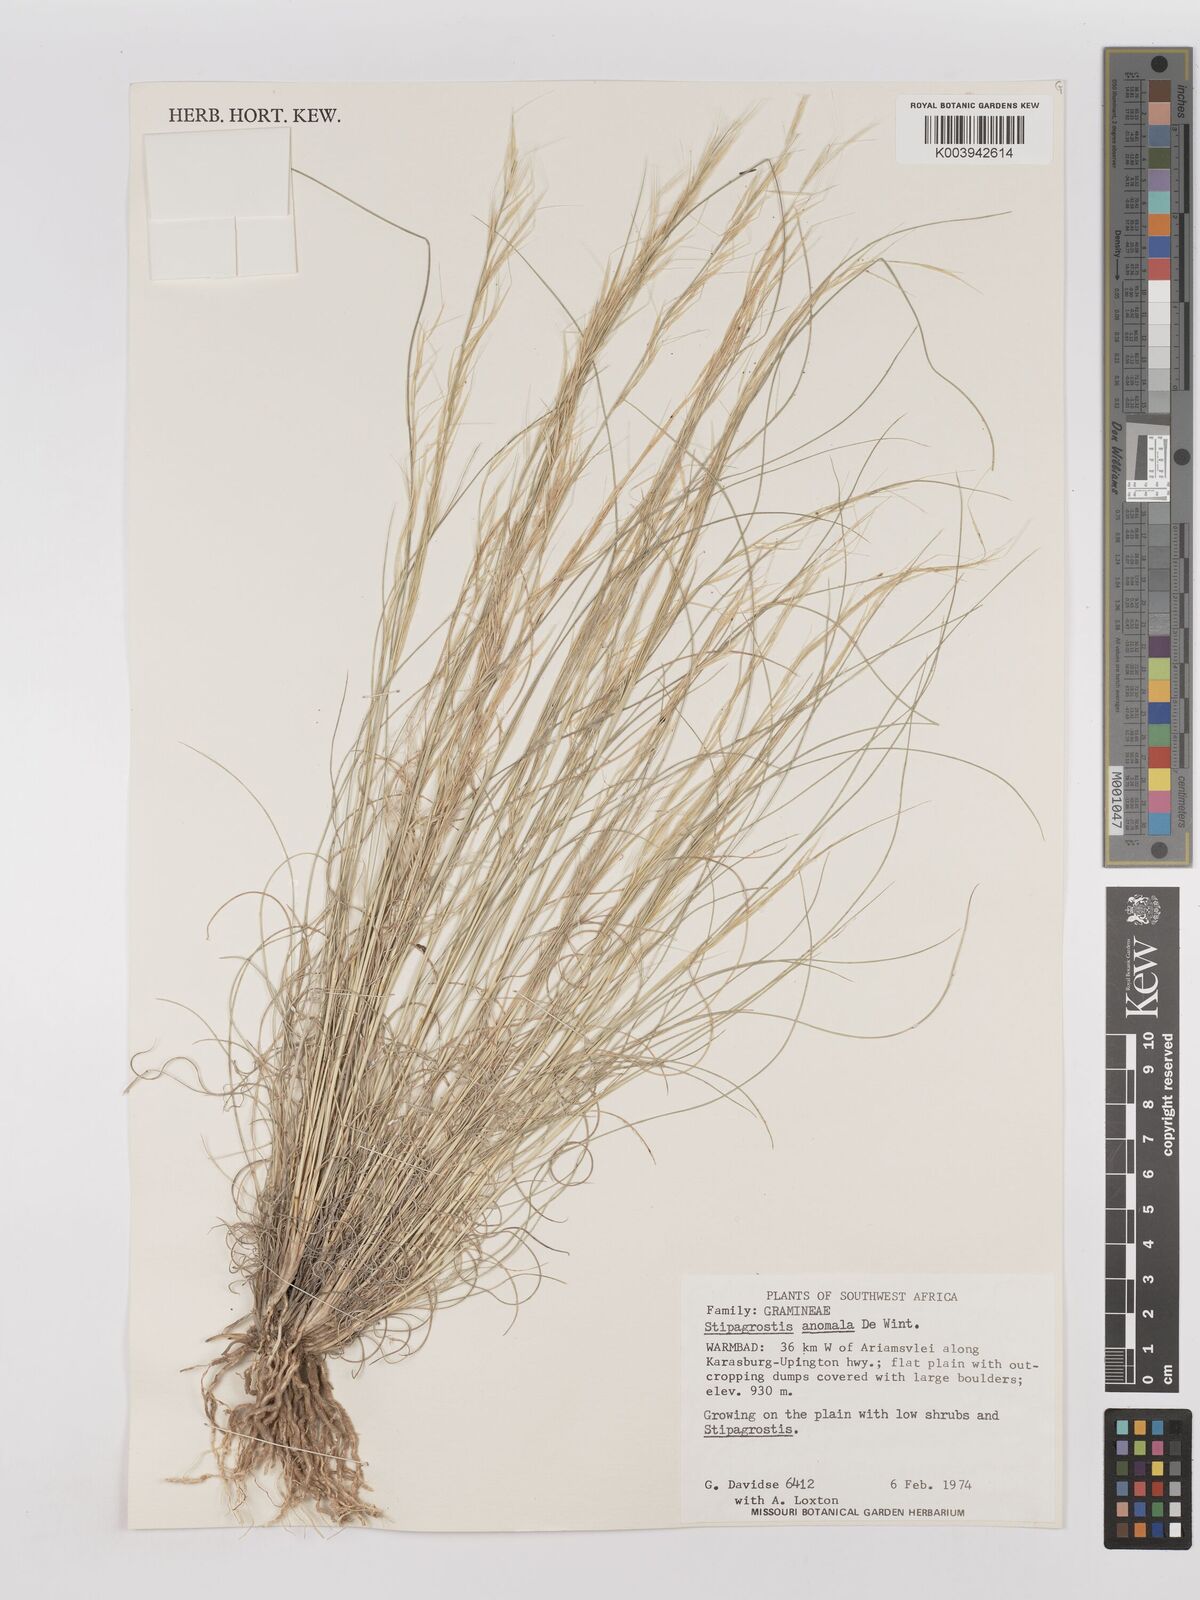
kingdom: Plantae
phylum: Tracheophyta
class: Liliopsida
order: Poales
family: Poaceae
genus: Stipagrostis
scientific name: Stipagrostis anomala
